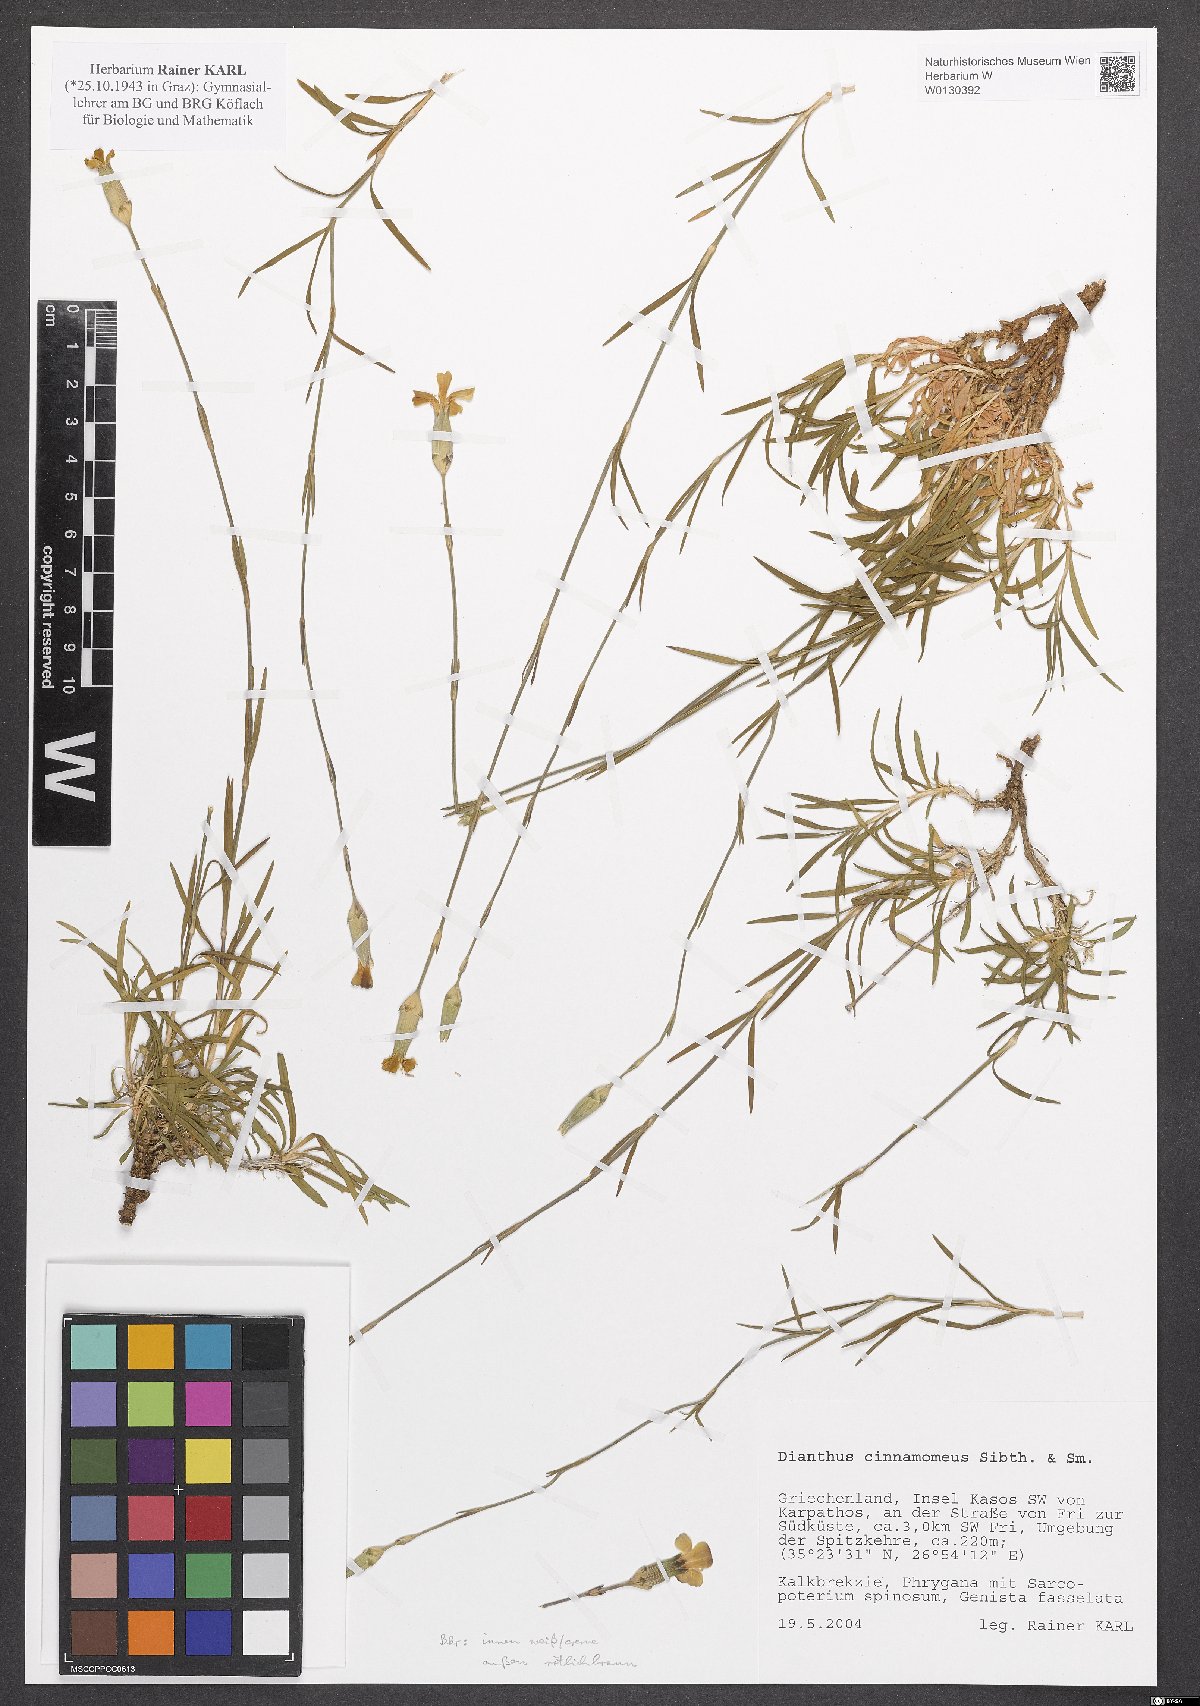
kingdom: Plantae
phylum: Tracheophyta
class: Magnoliopsida
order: Caryophyllales
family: Caryophyllaceae
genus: Dianthus
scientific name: Dianthus cinnamomeus
